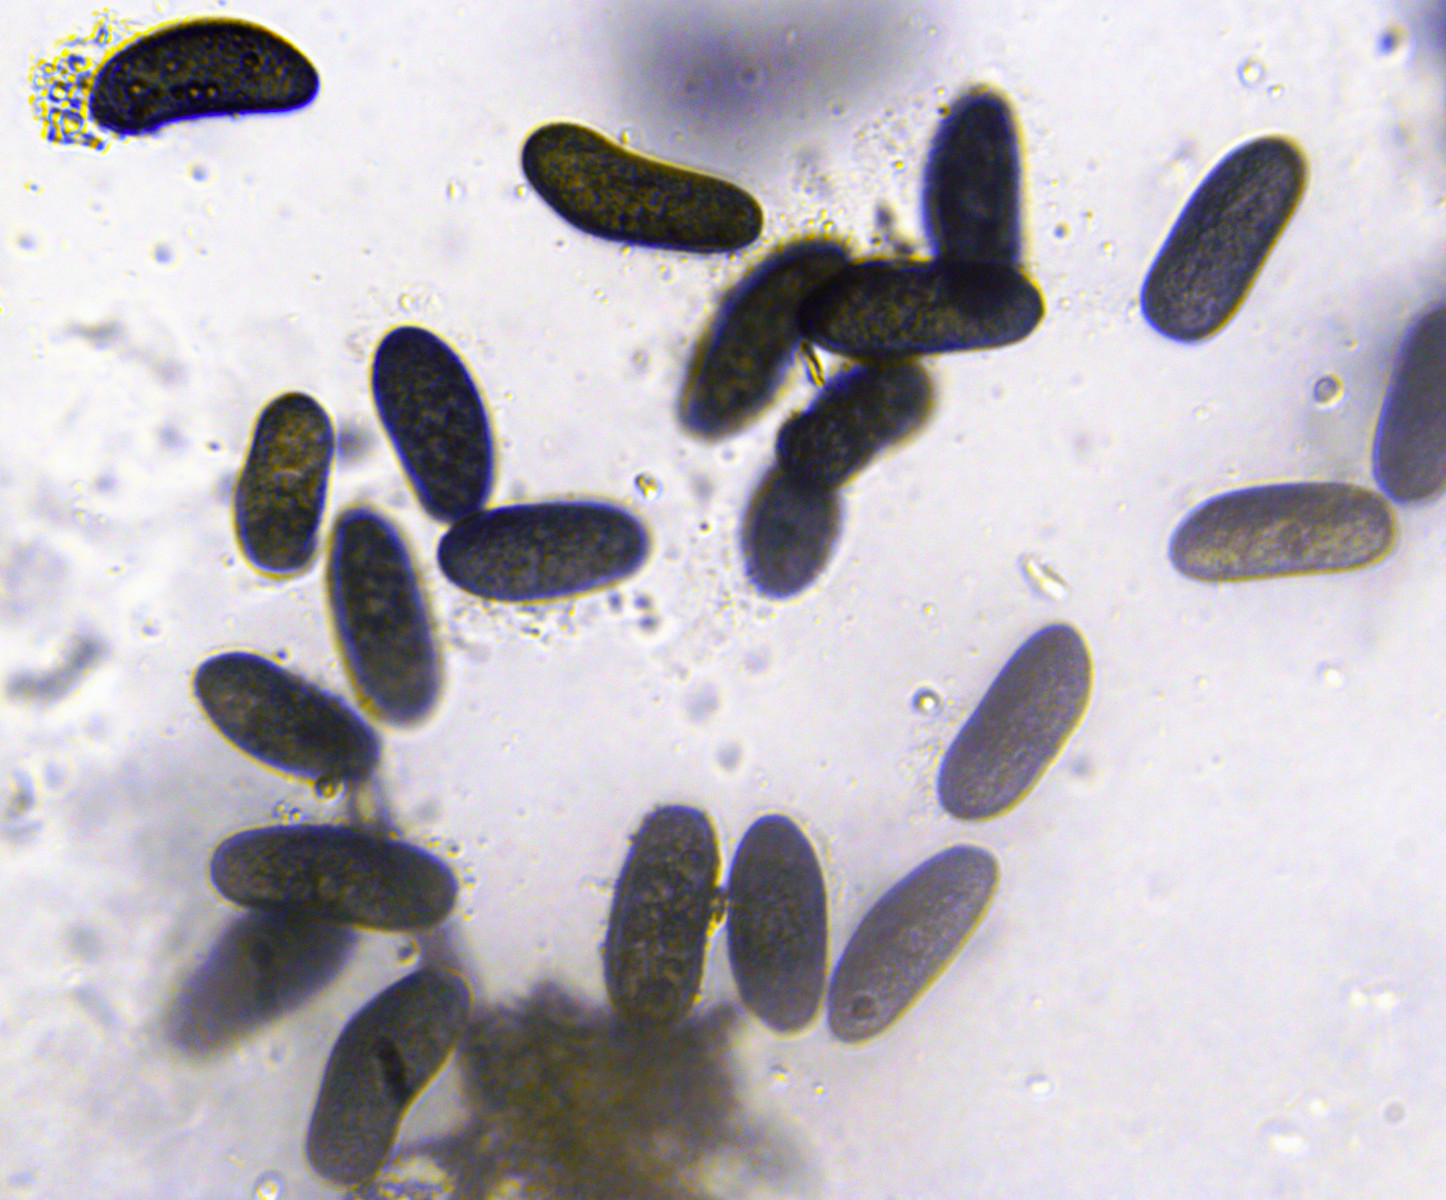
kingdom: Fungi
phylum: Ascomycota
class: Dothideomycetes
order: Botryosphaeriales
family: Botryosphaeriaceae
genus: Sphaeropsis
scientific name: Sphaeropsis sapinea
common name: Sphaeropsis blight
